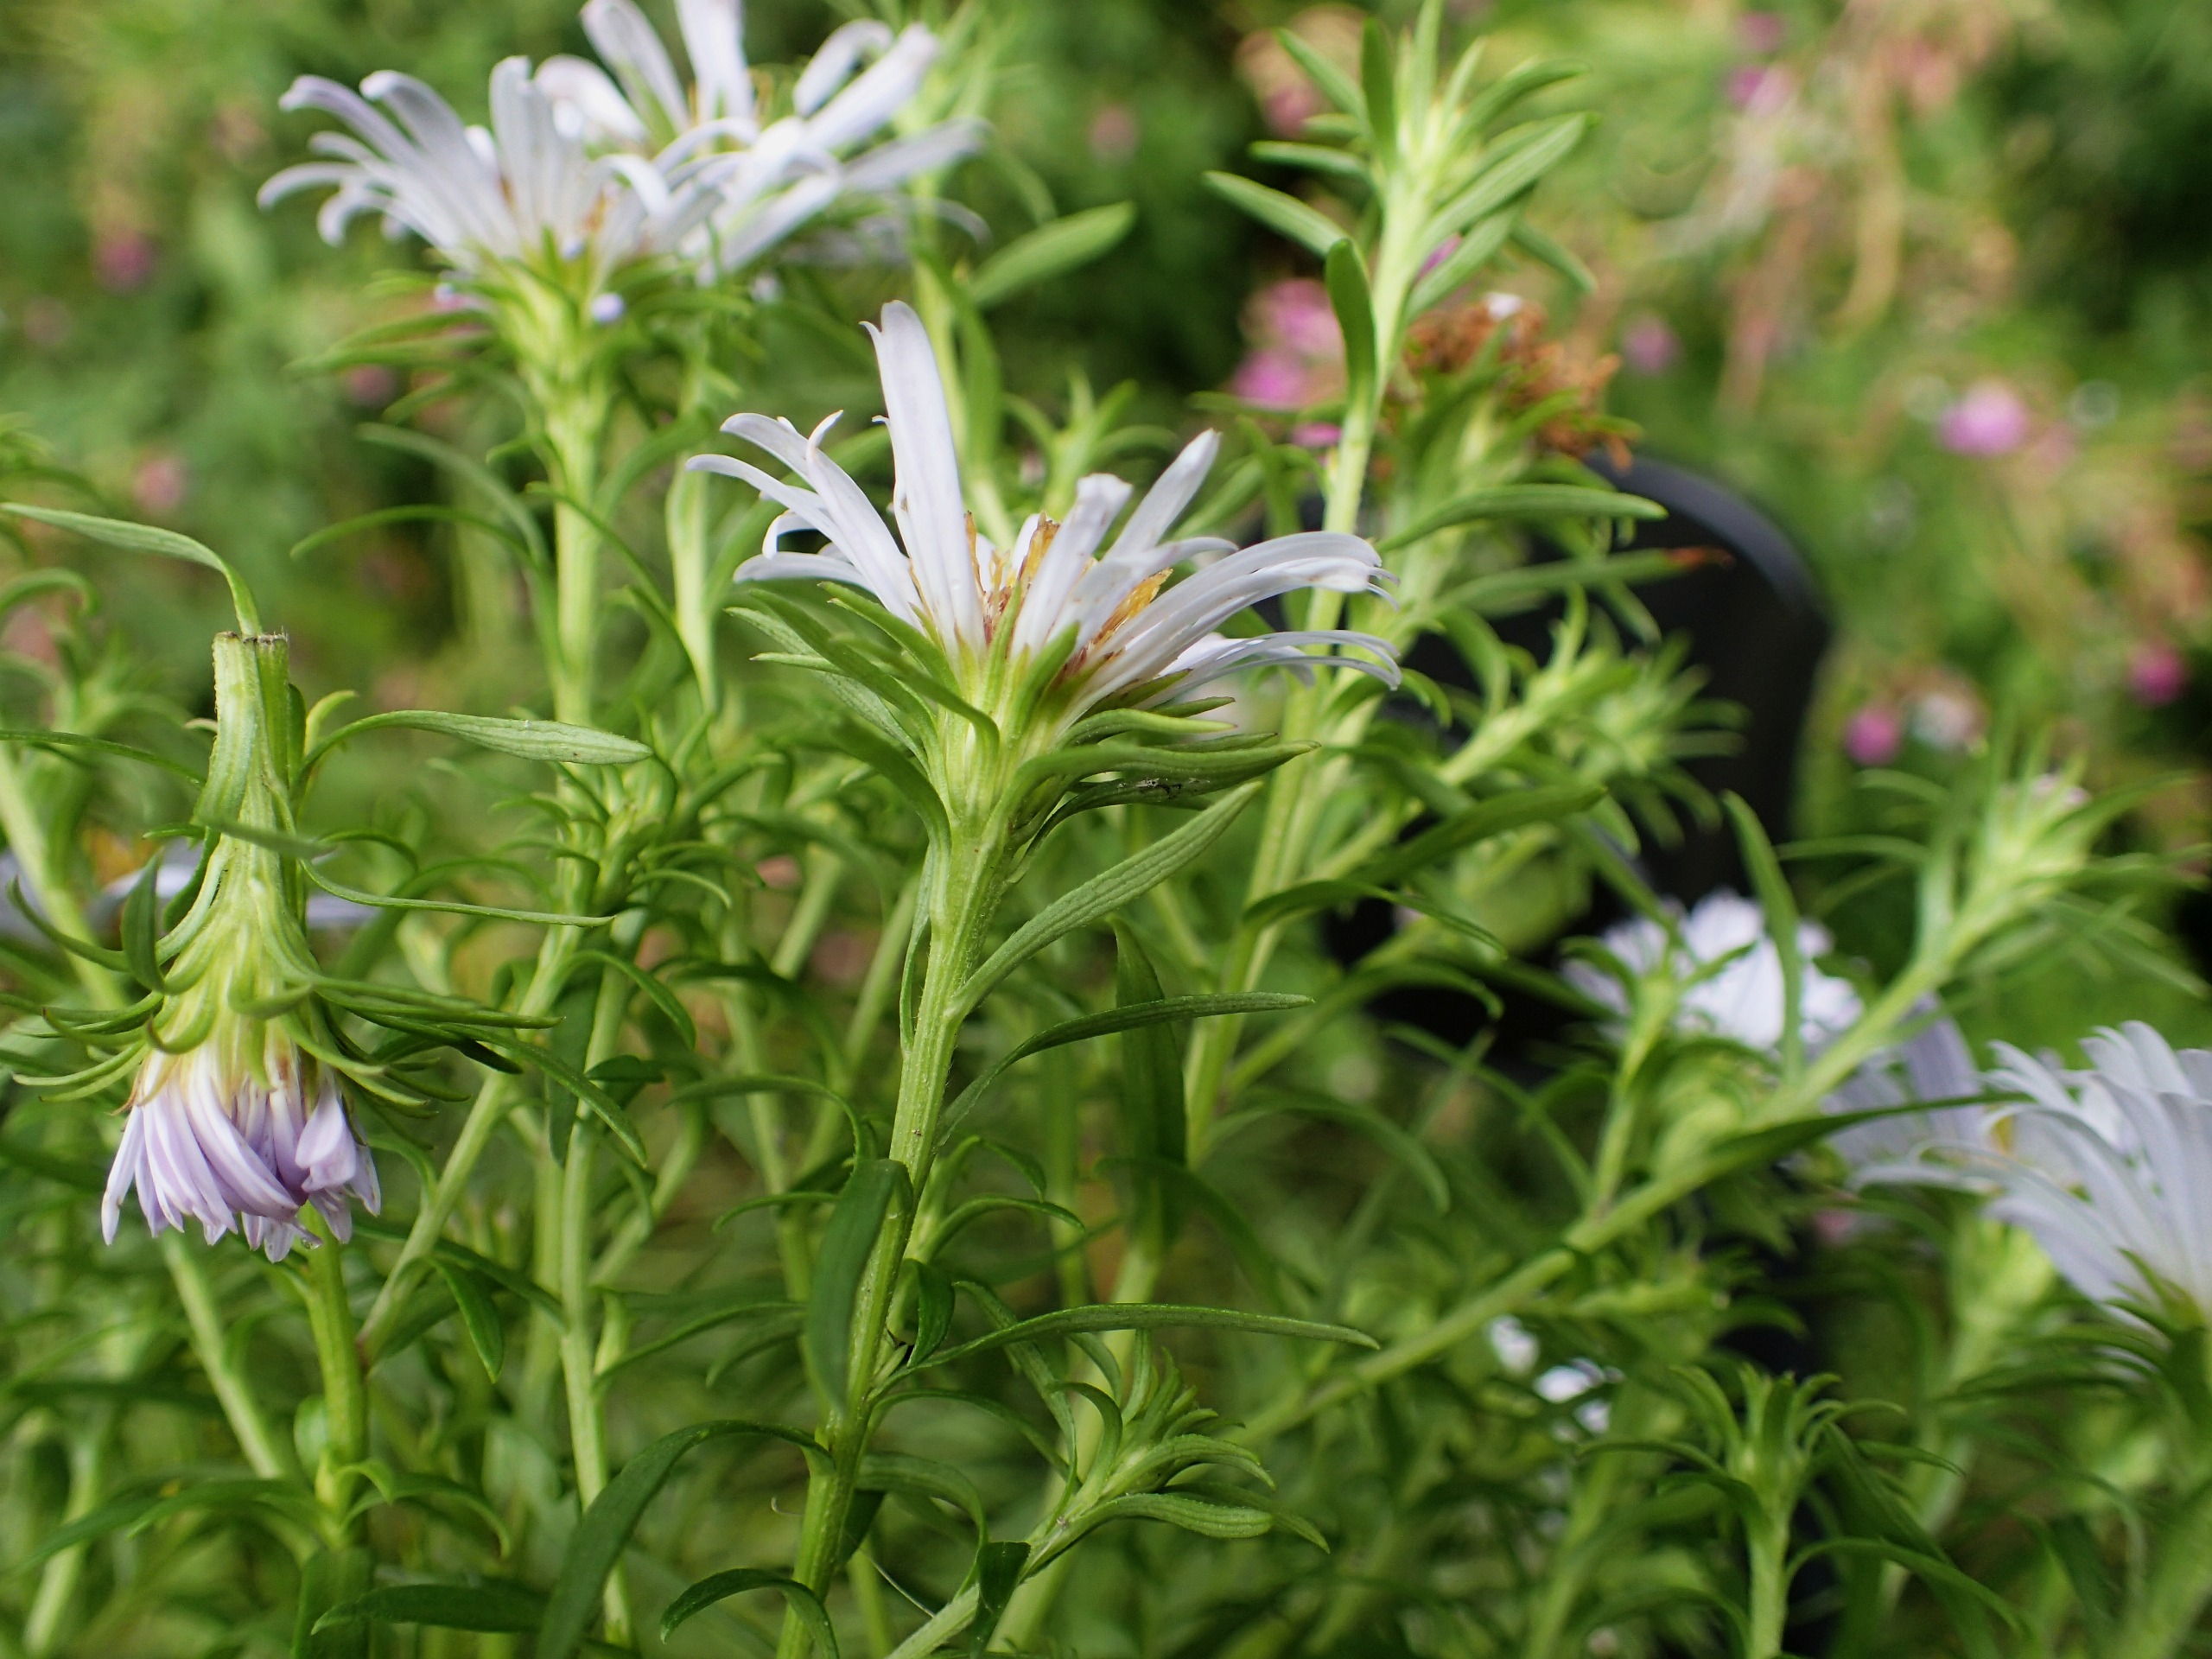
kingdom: Plantae
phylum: Tracheophyta
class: Magnoliopsida
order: Asterales
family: Asteraceae
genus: Symphyotrichum
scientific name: Symphyotrichum salignum
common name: Pilebladet asters
